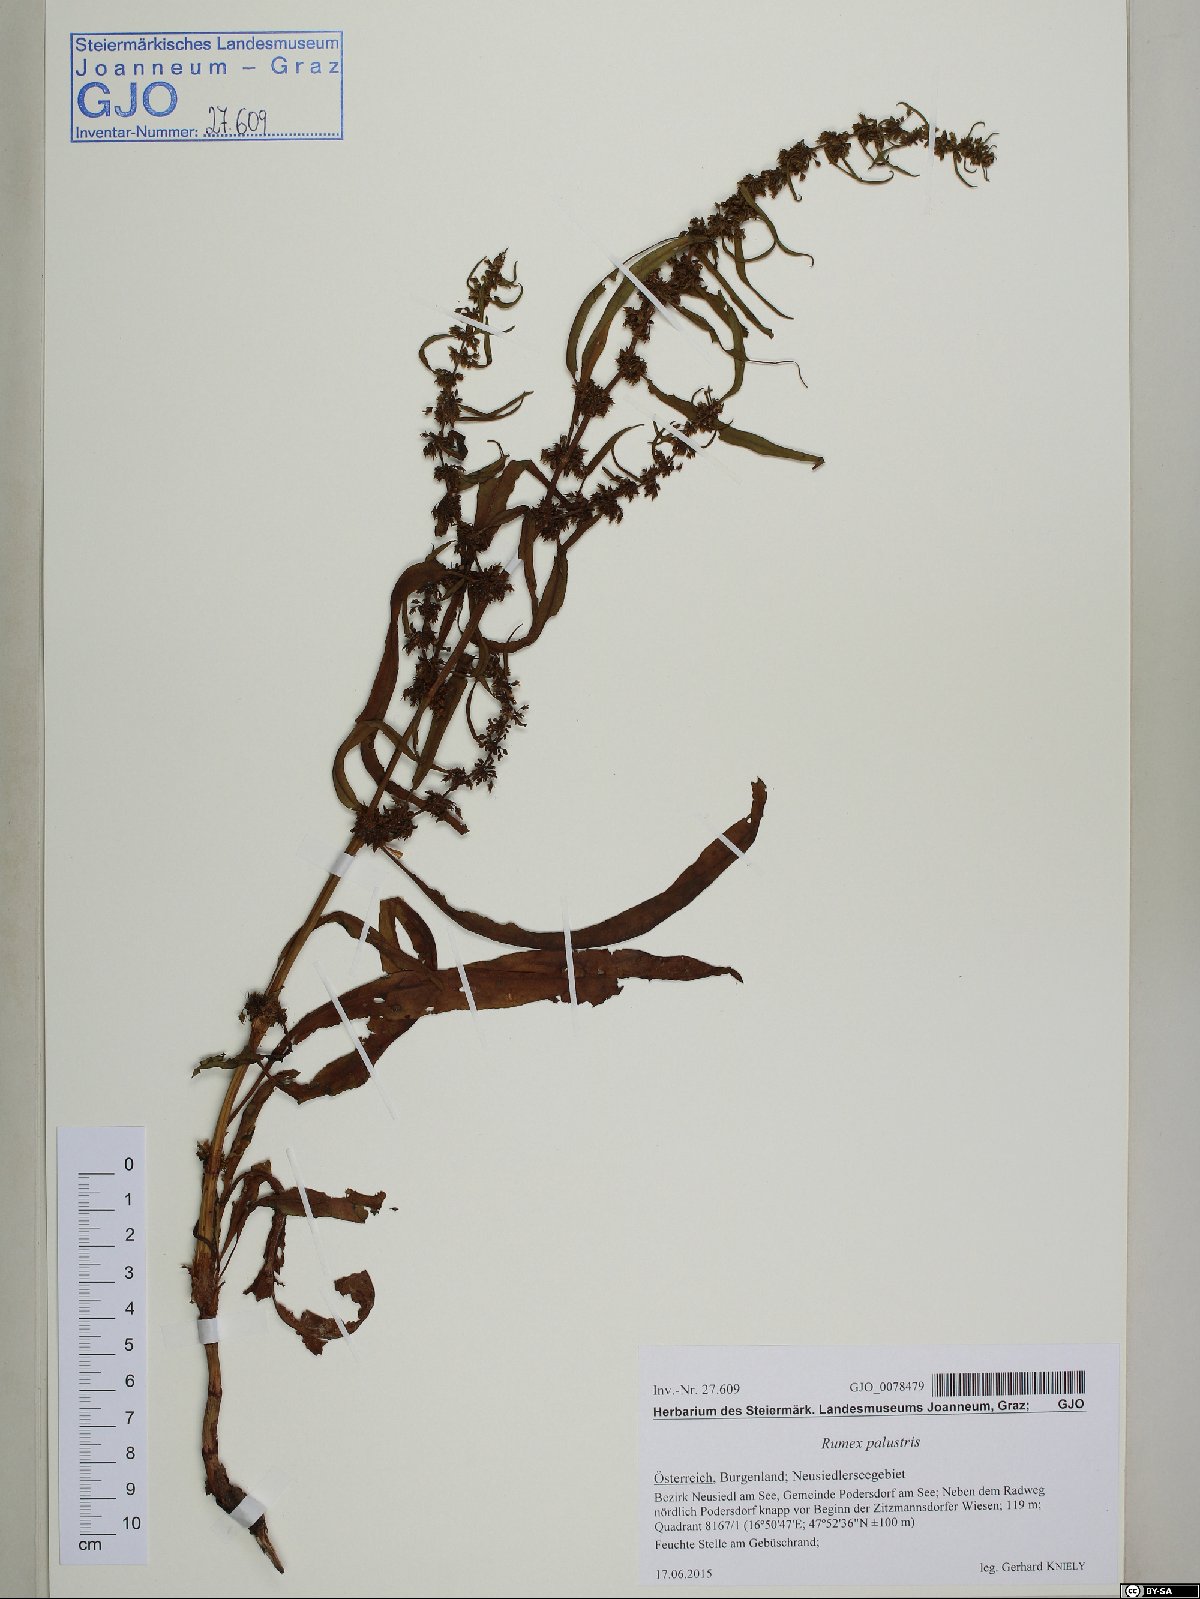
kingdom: Plantae
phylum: Tracheophyta
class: Magnoliopsida
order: Caryophyllales
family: Polygonaceae
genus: Rumex
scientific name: Rumex palustris
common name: Marsh dock
